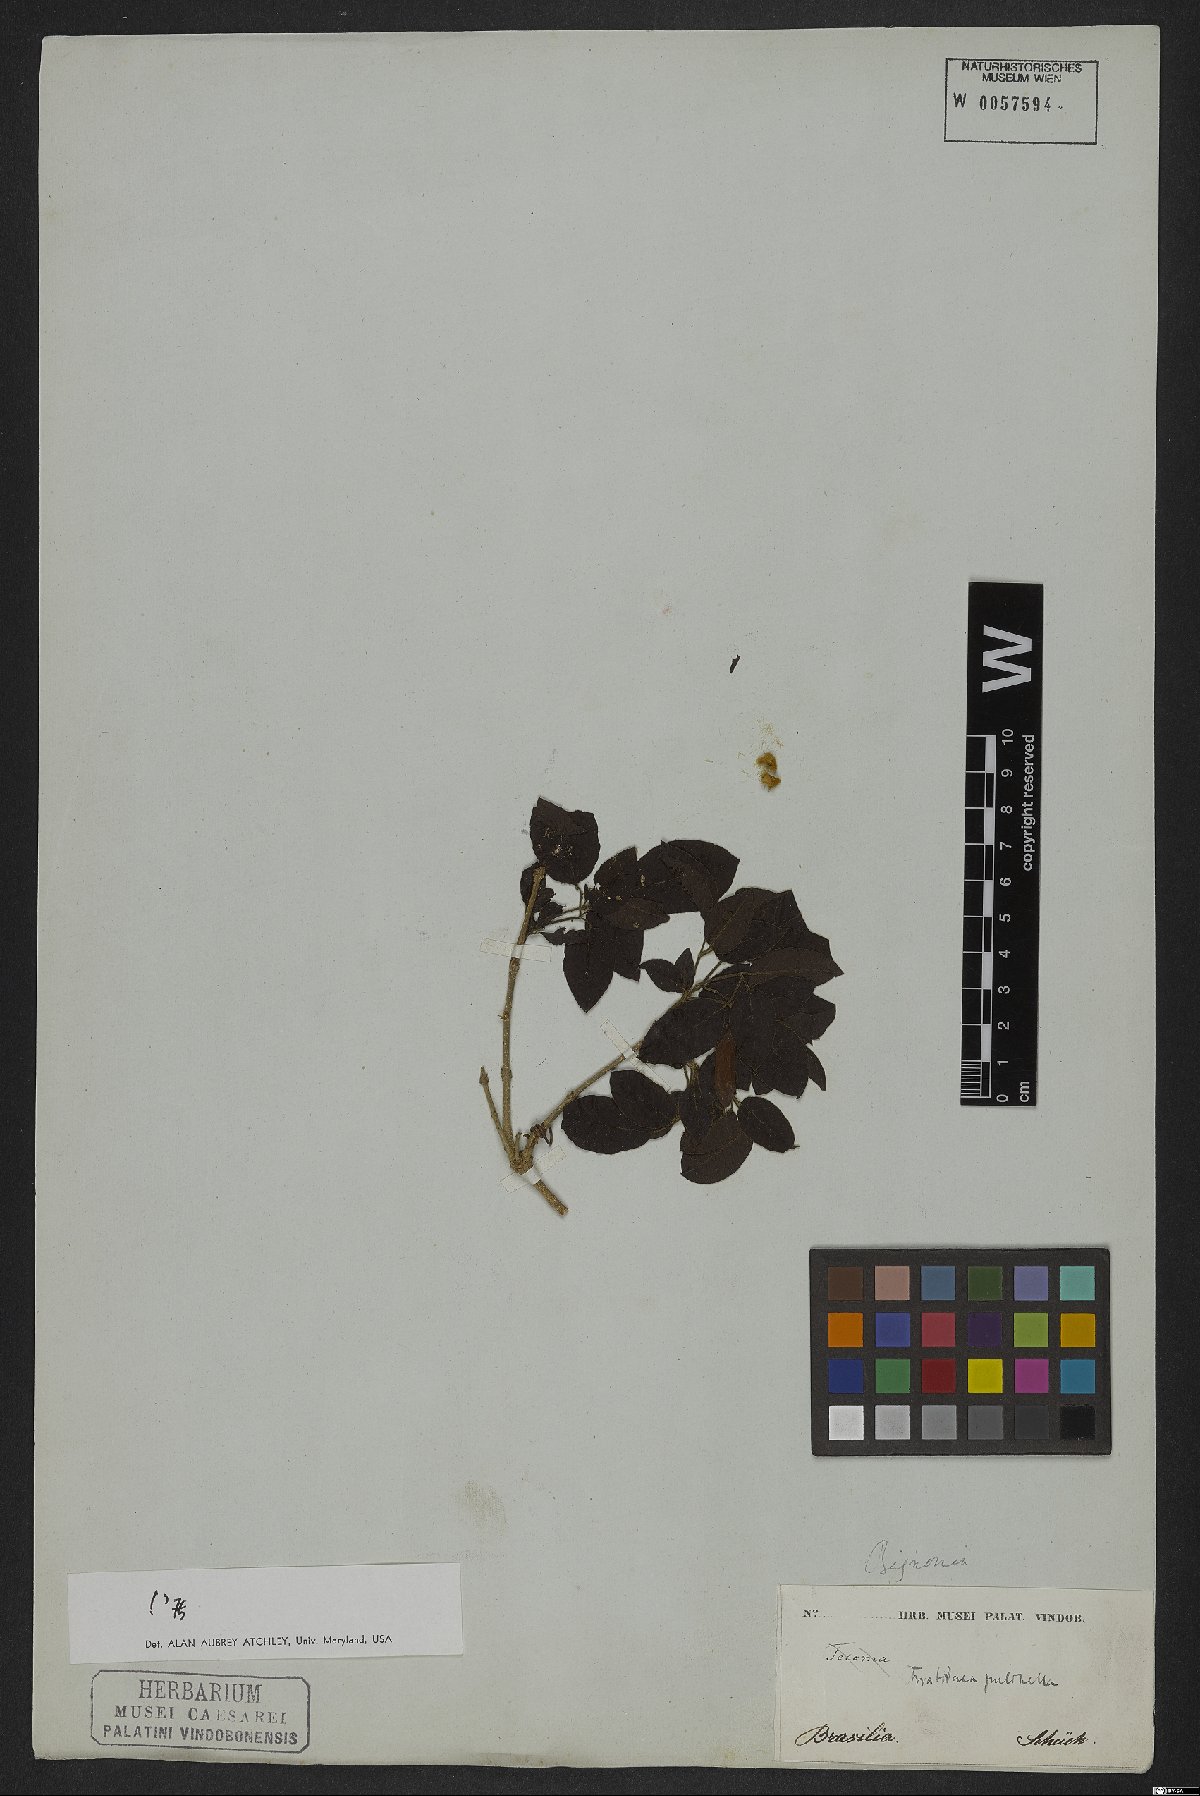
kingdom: Plantae
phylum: Tracheophyta
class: Magnoliopsida
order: Lamiales
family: Bignoniaceae
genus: Cuspidaria
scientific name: Cuspidaria pulchella
